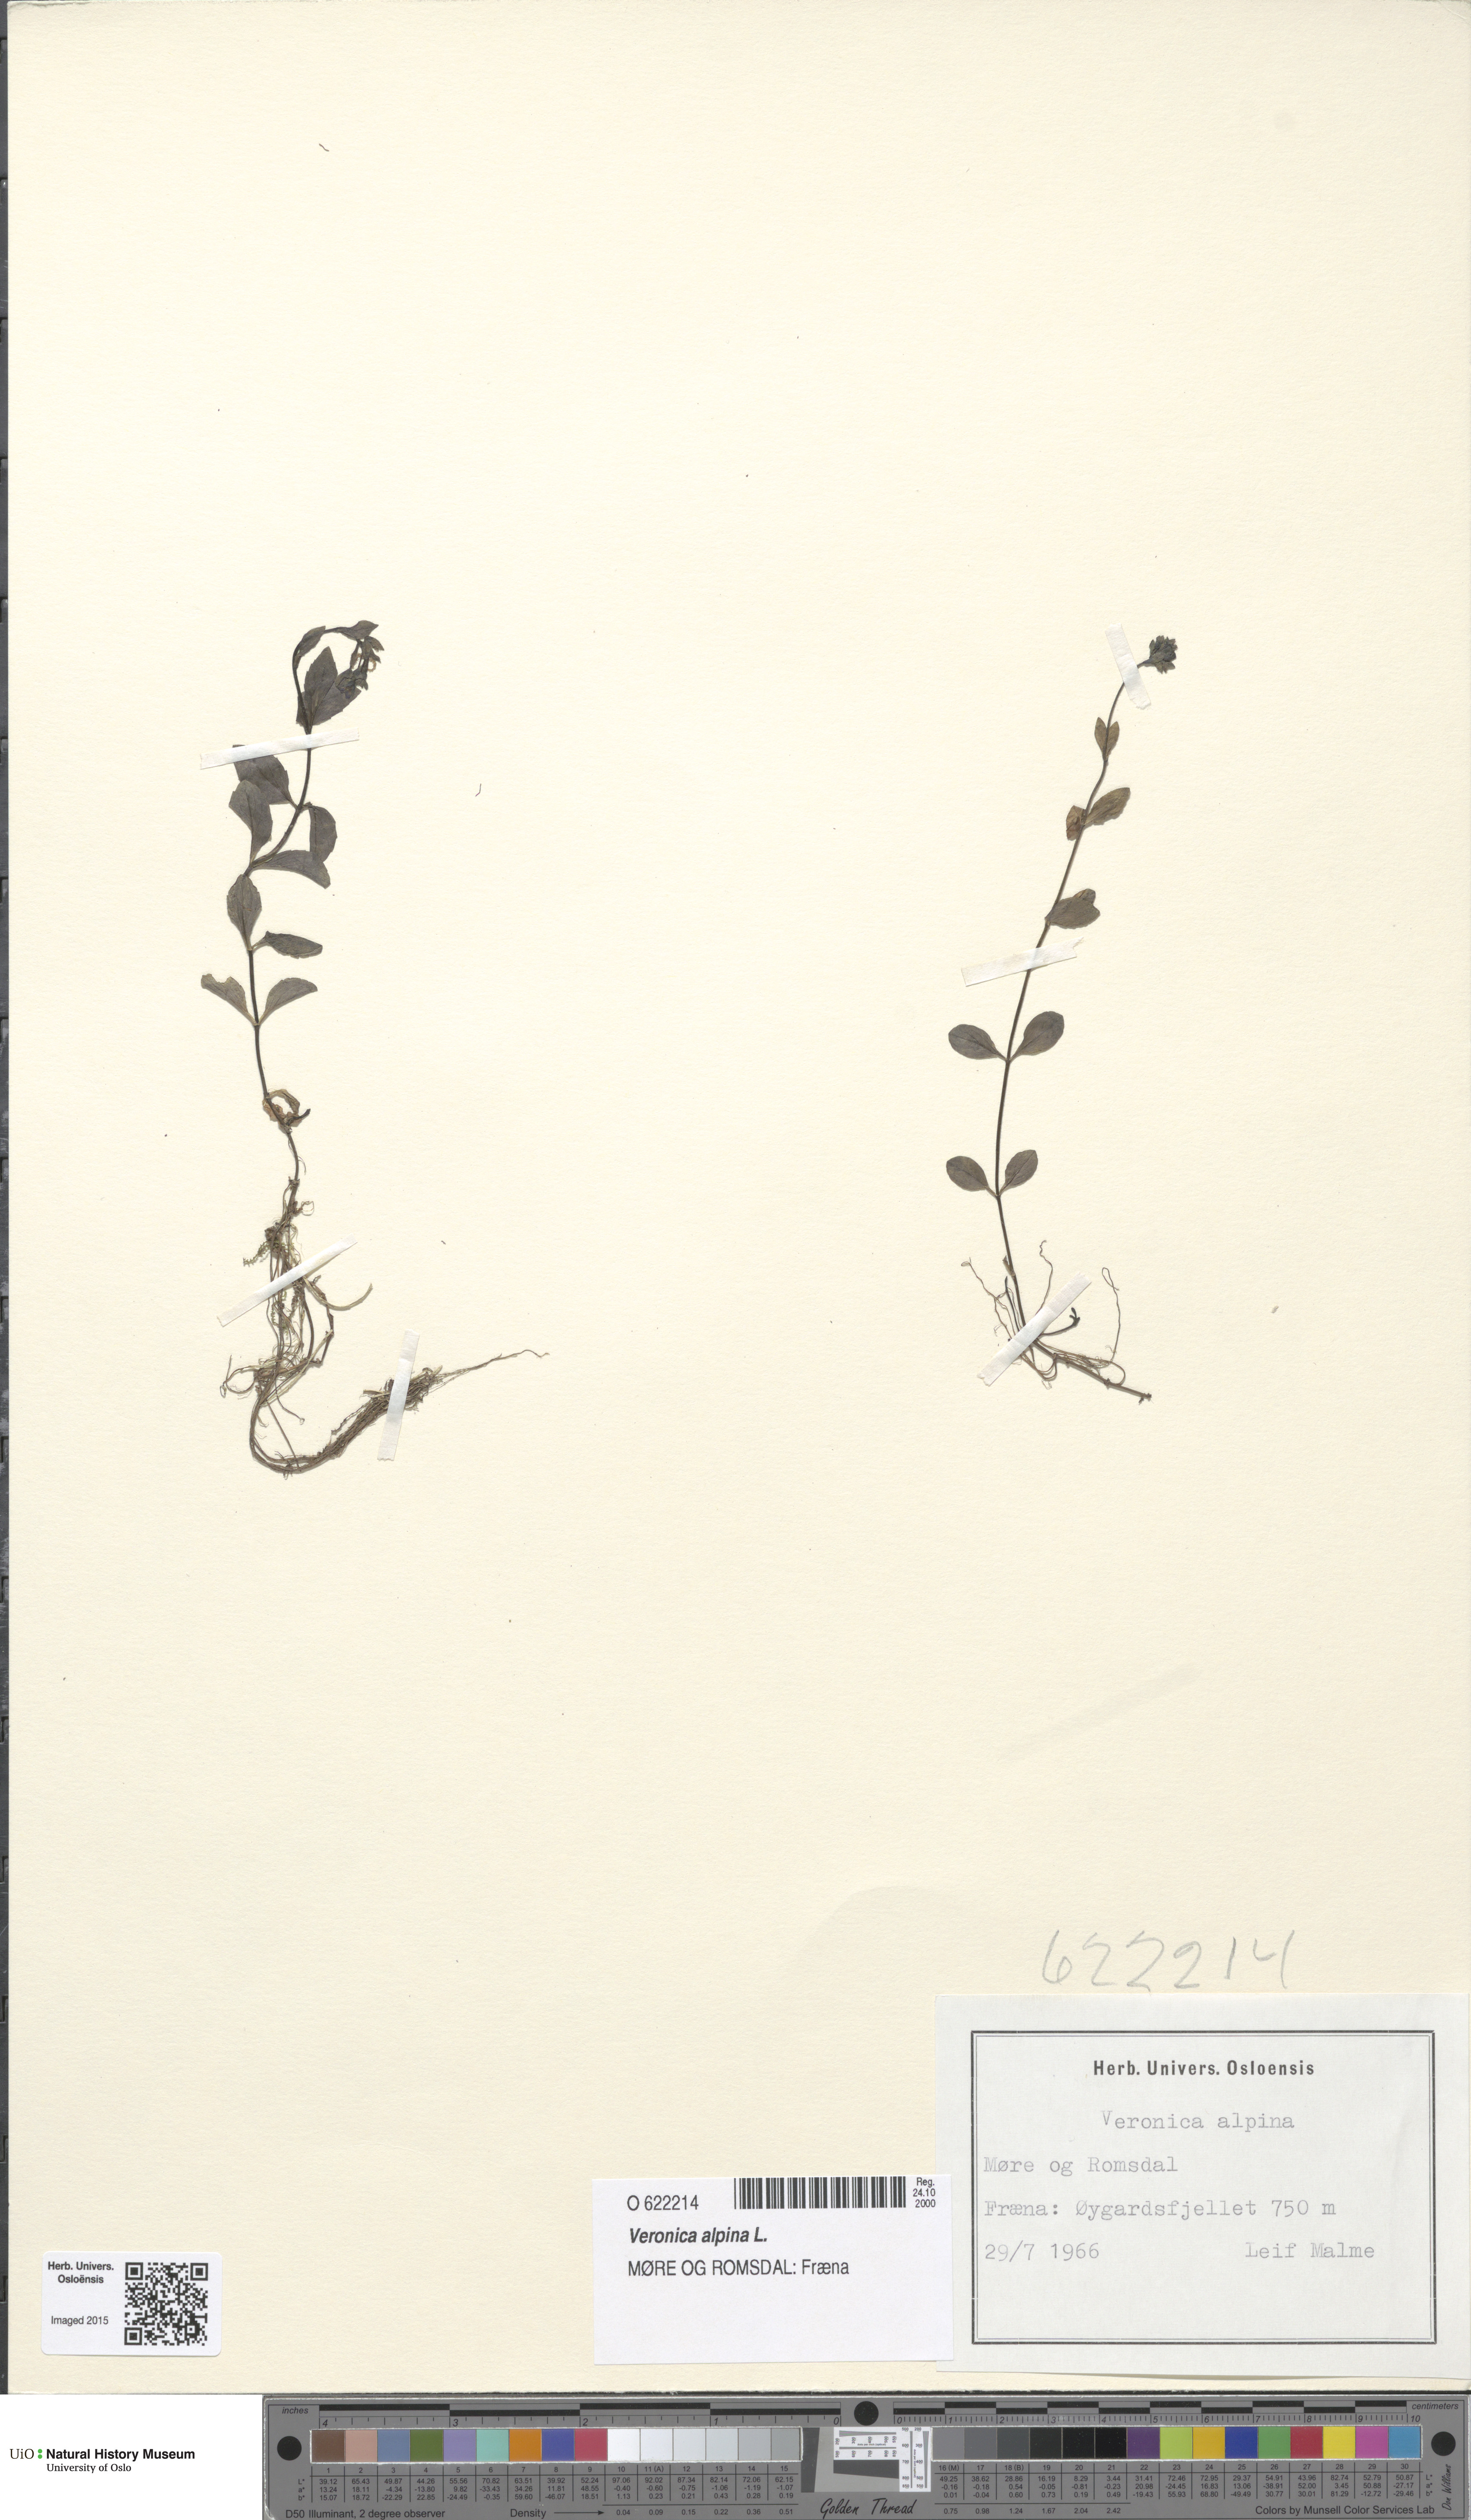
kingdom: Plantae
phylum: Tracheophyta
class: Magnoliopsida
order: Lamiales
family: Plantaginaceae
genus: Veronica
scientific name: Veronica alpina
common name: Alpine speedwell
